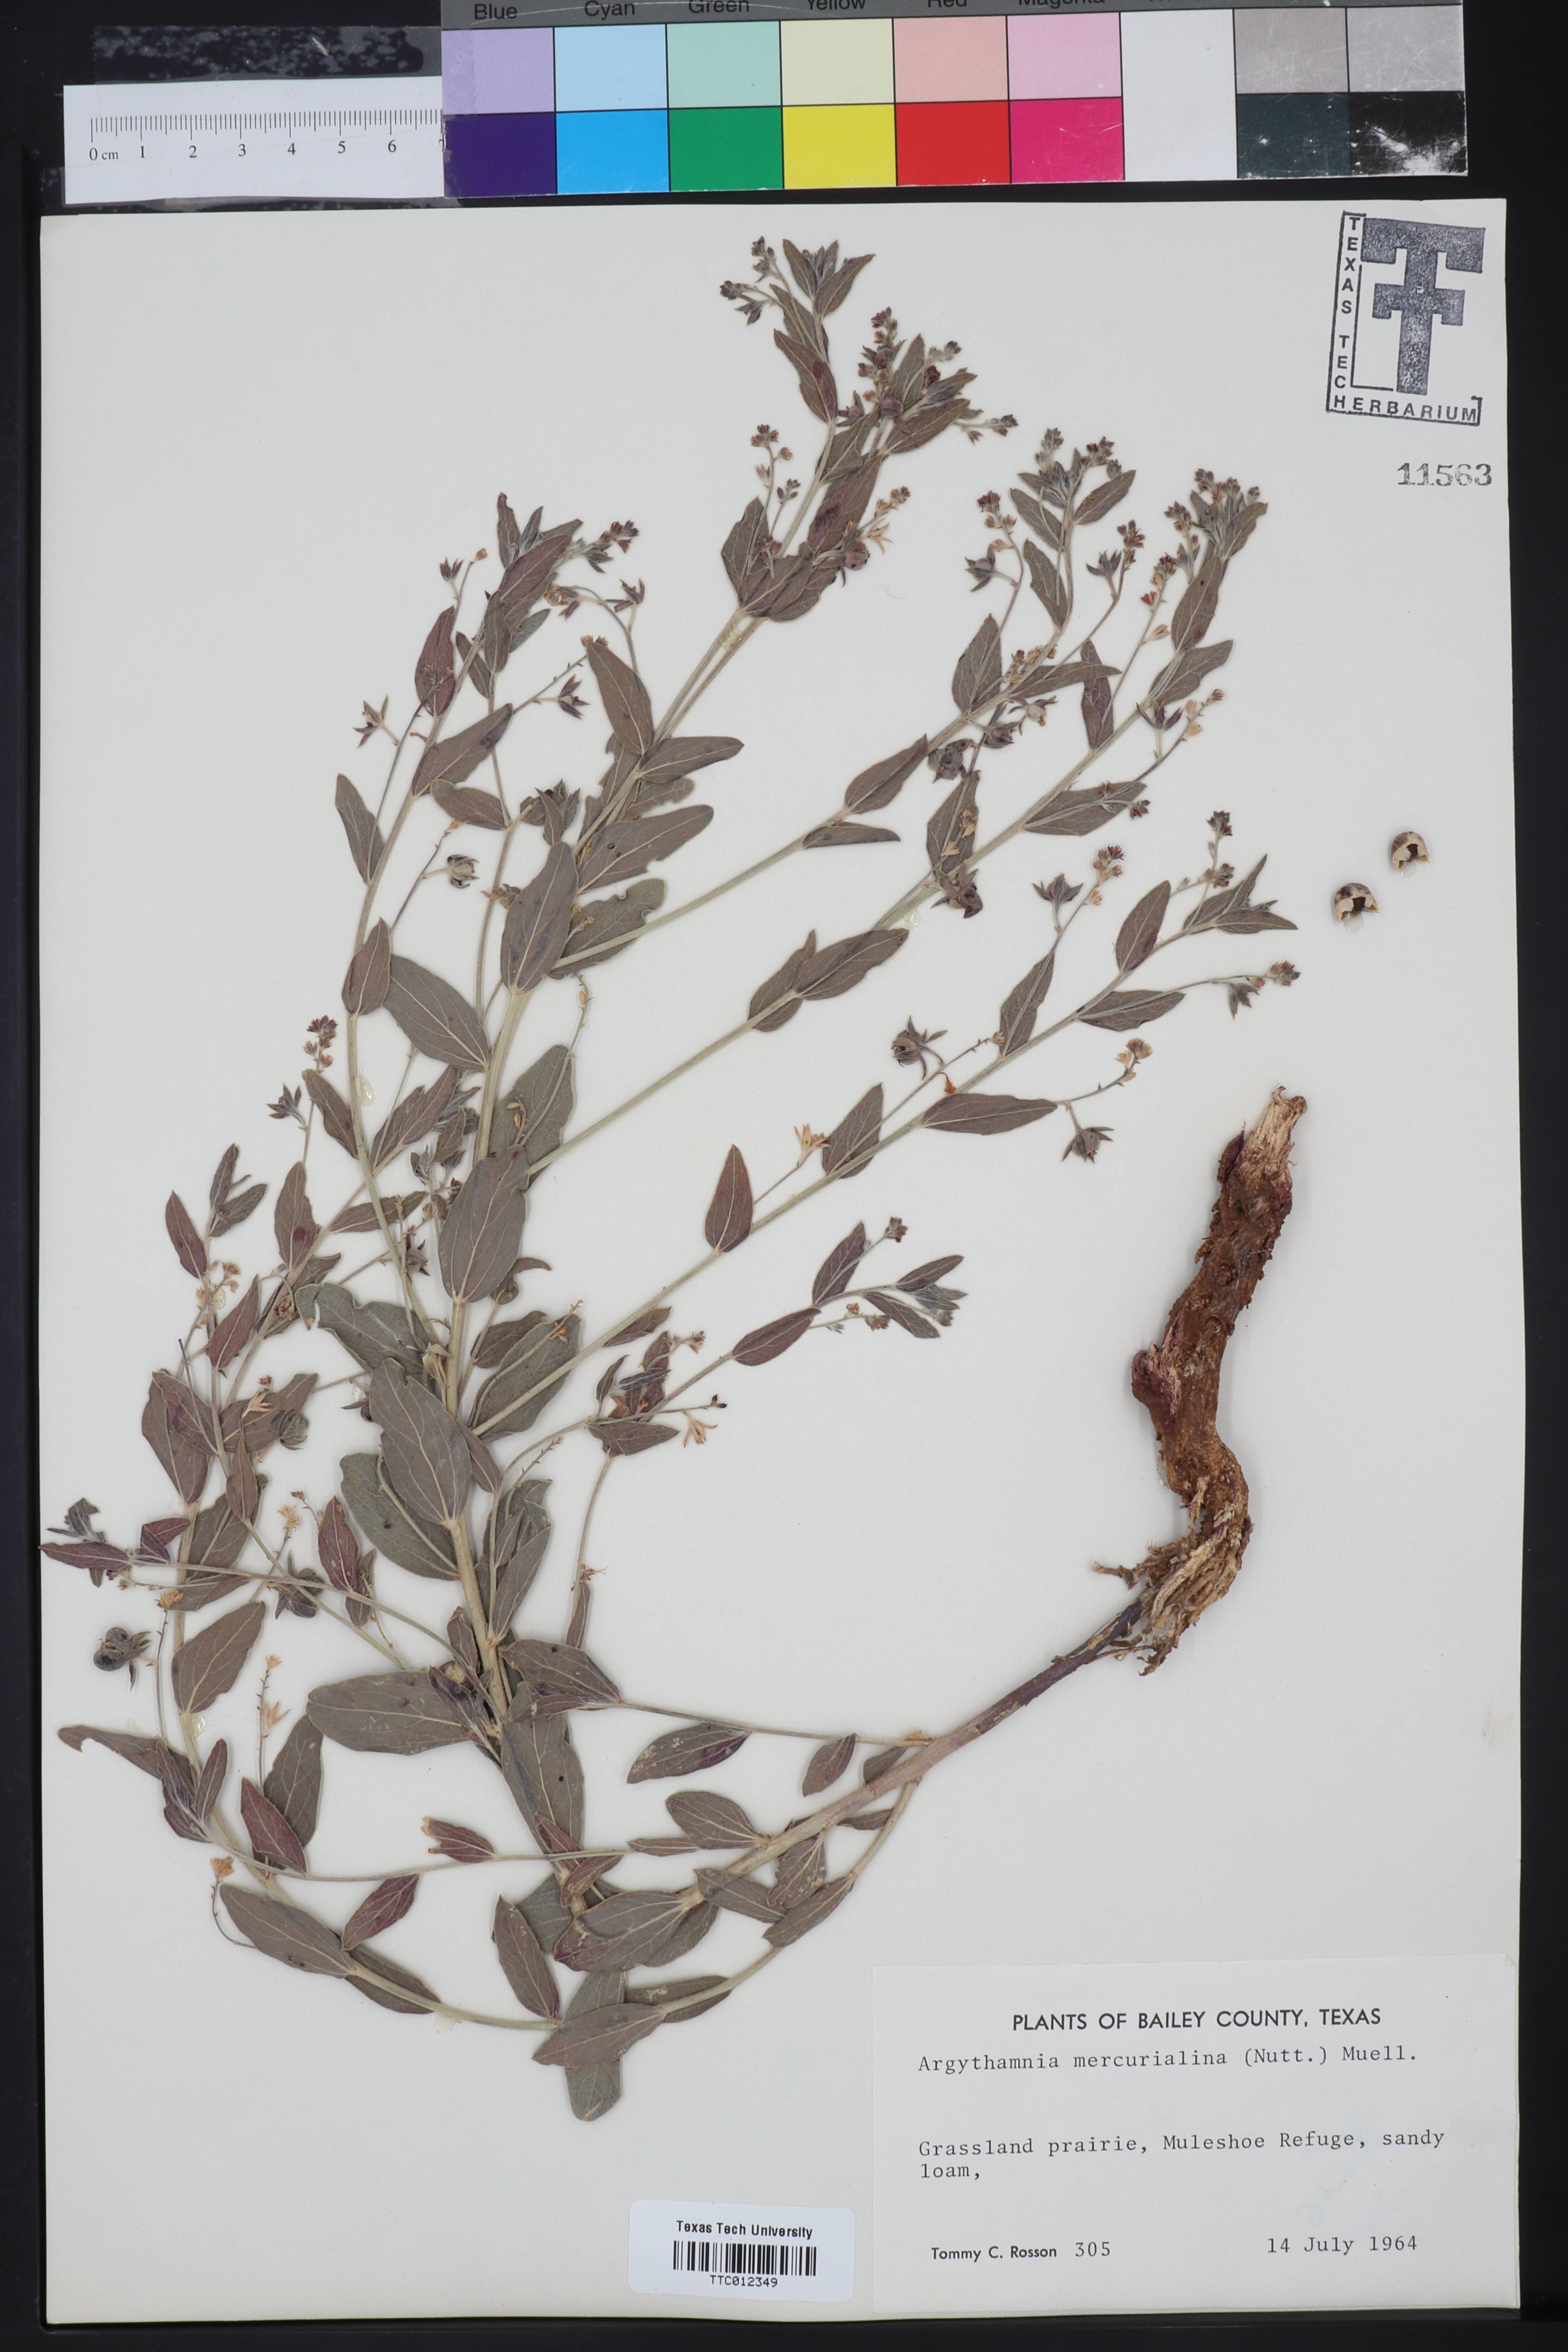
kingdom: Plantae
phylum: Tracheophyta
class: Magnoliopsida
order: Malpighiales
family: Euphorbiaceae
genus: Ditaxis
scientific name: Ditaxis mercurialina
